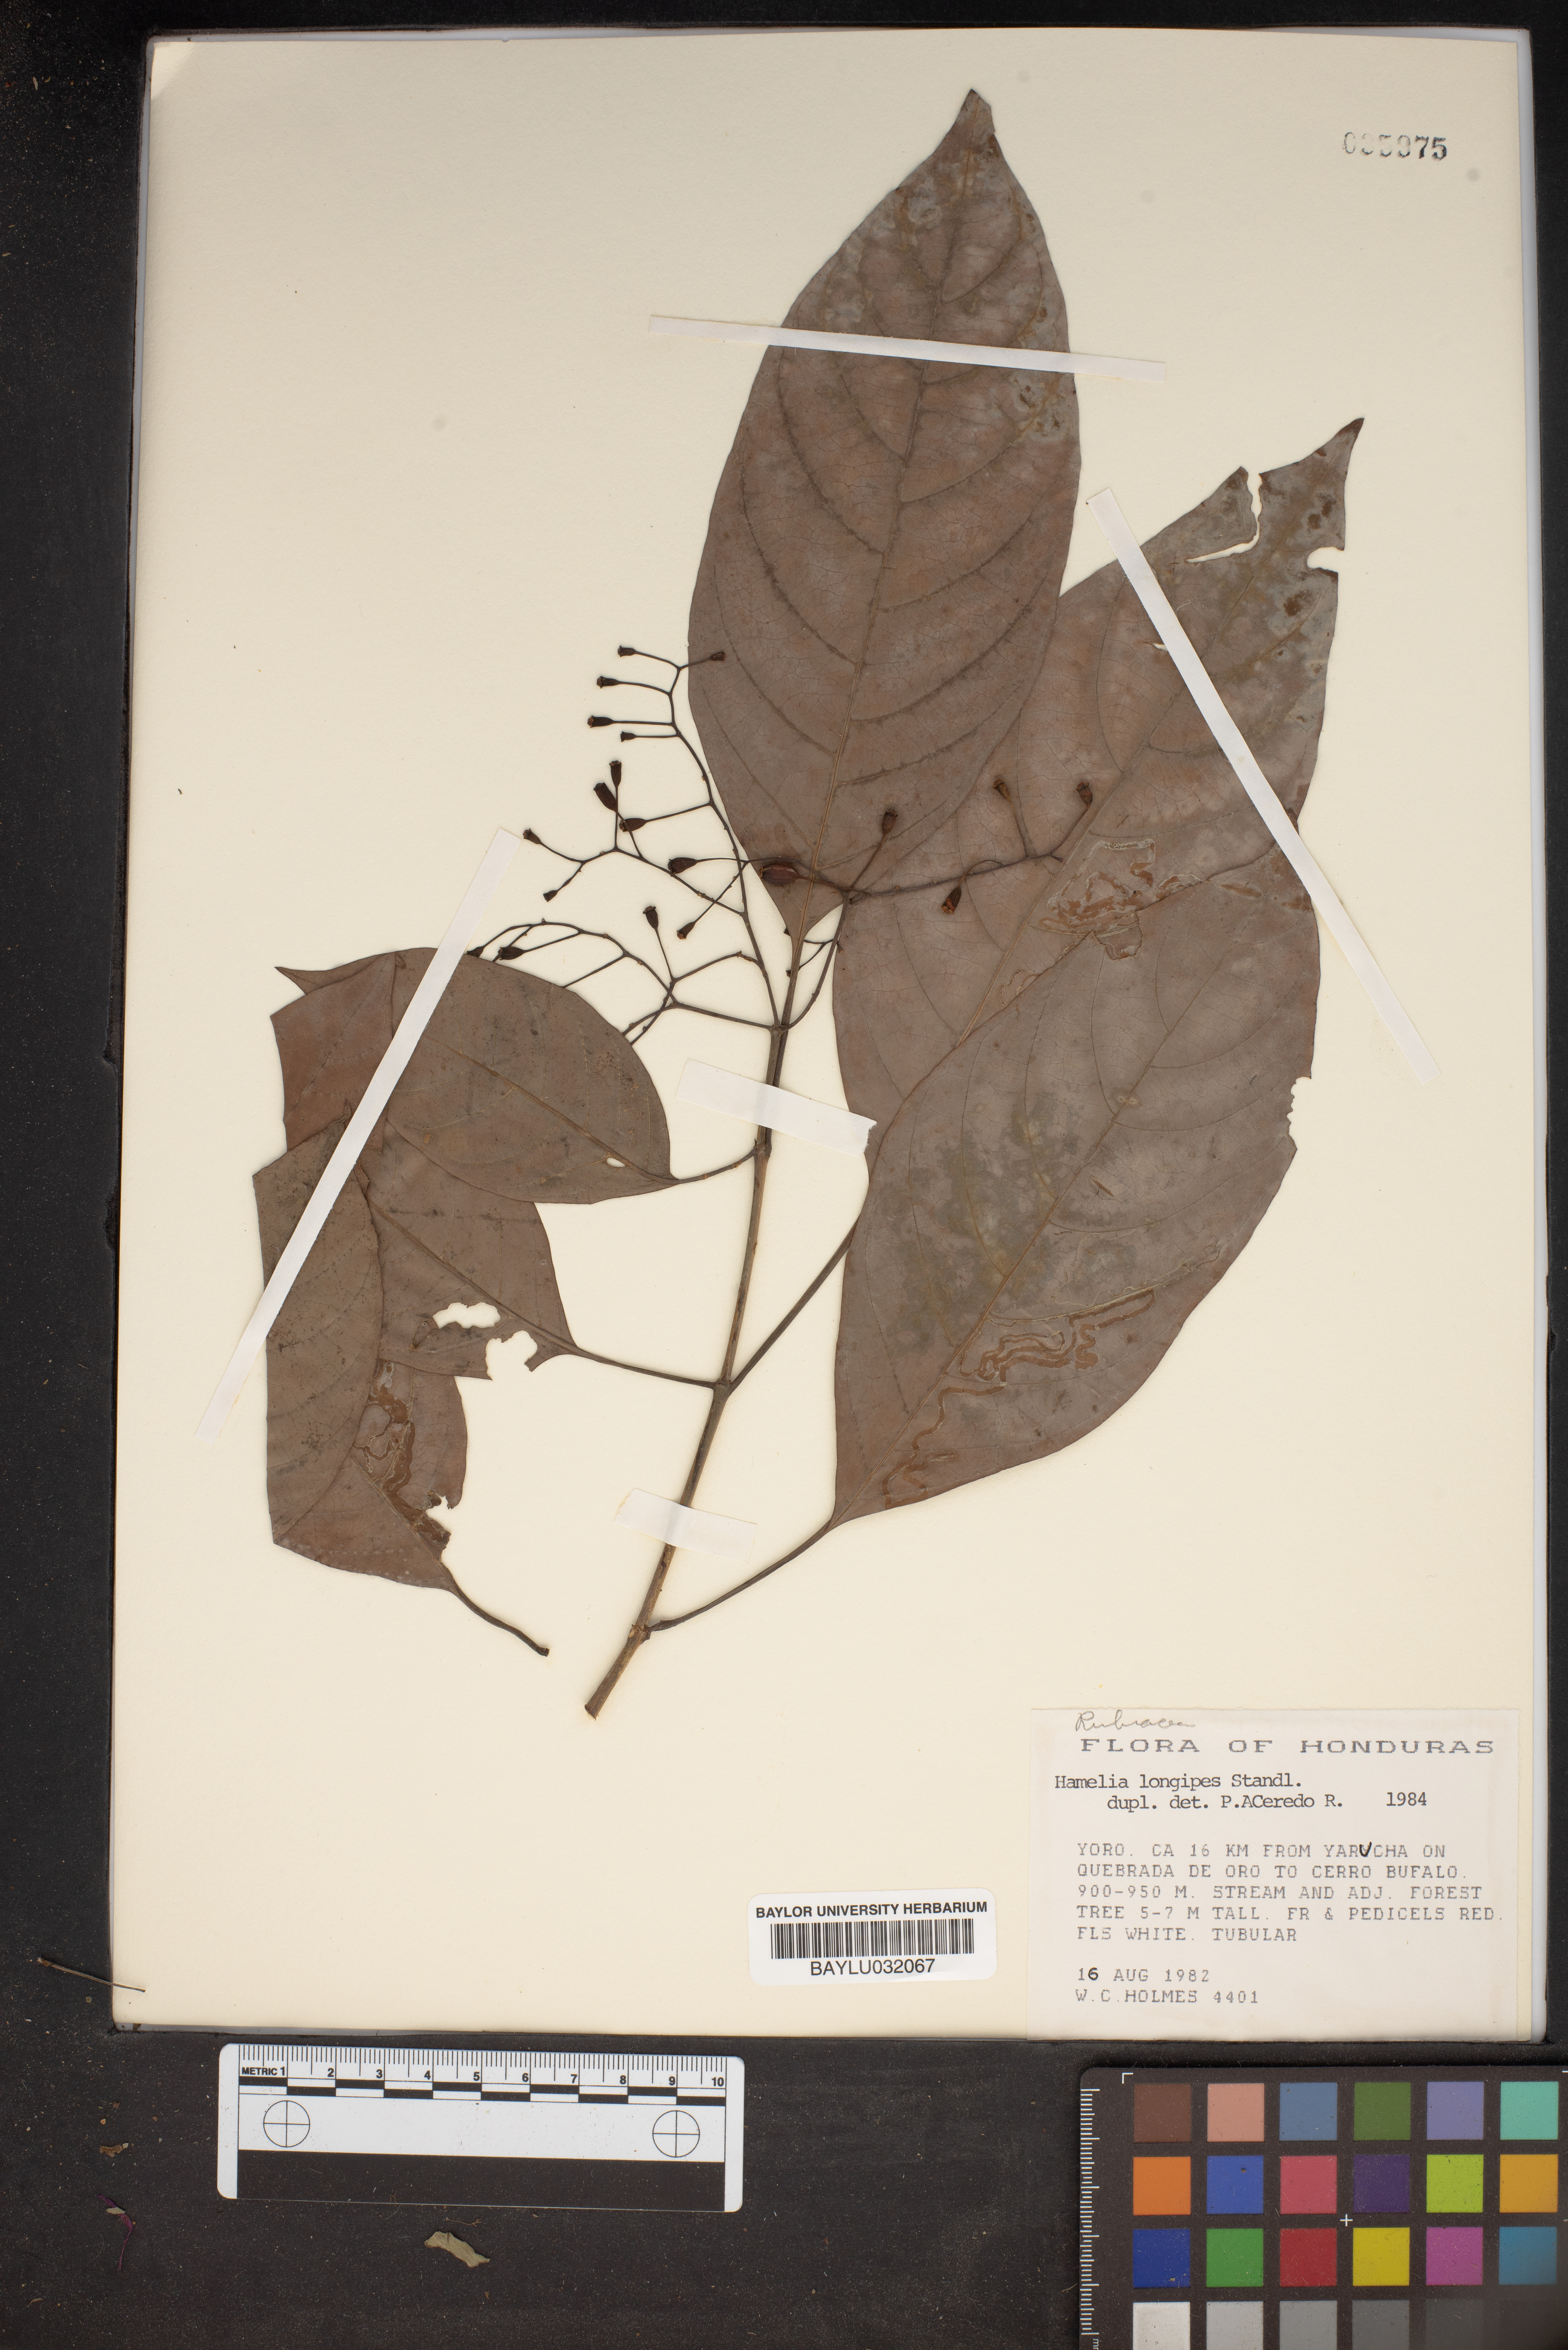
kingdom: Plantae
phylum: Tracheophyta
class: Magnoliopsida
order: Gentianales
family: Rubiaceae
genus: Hamelia
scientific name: Hamelia longipes
